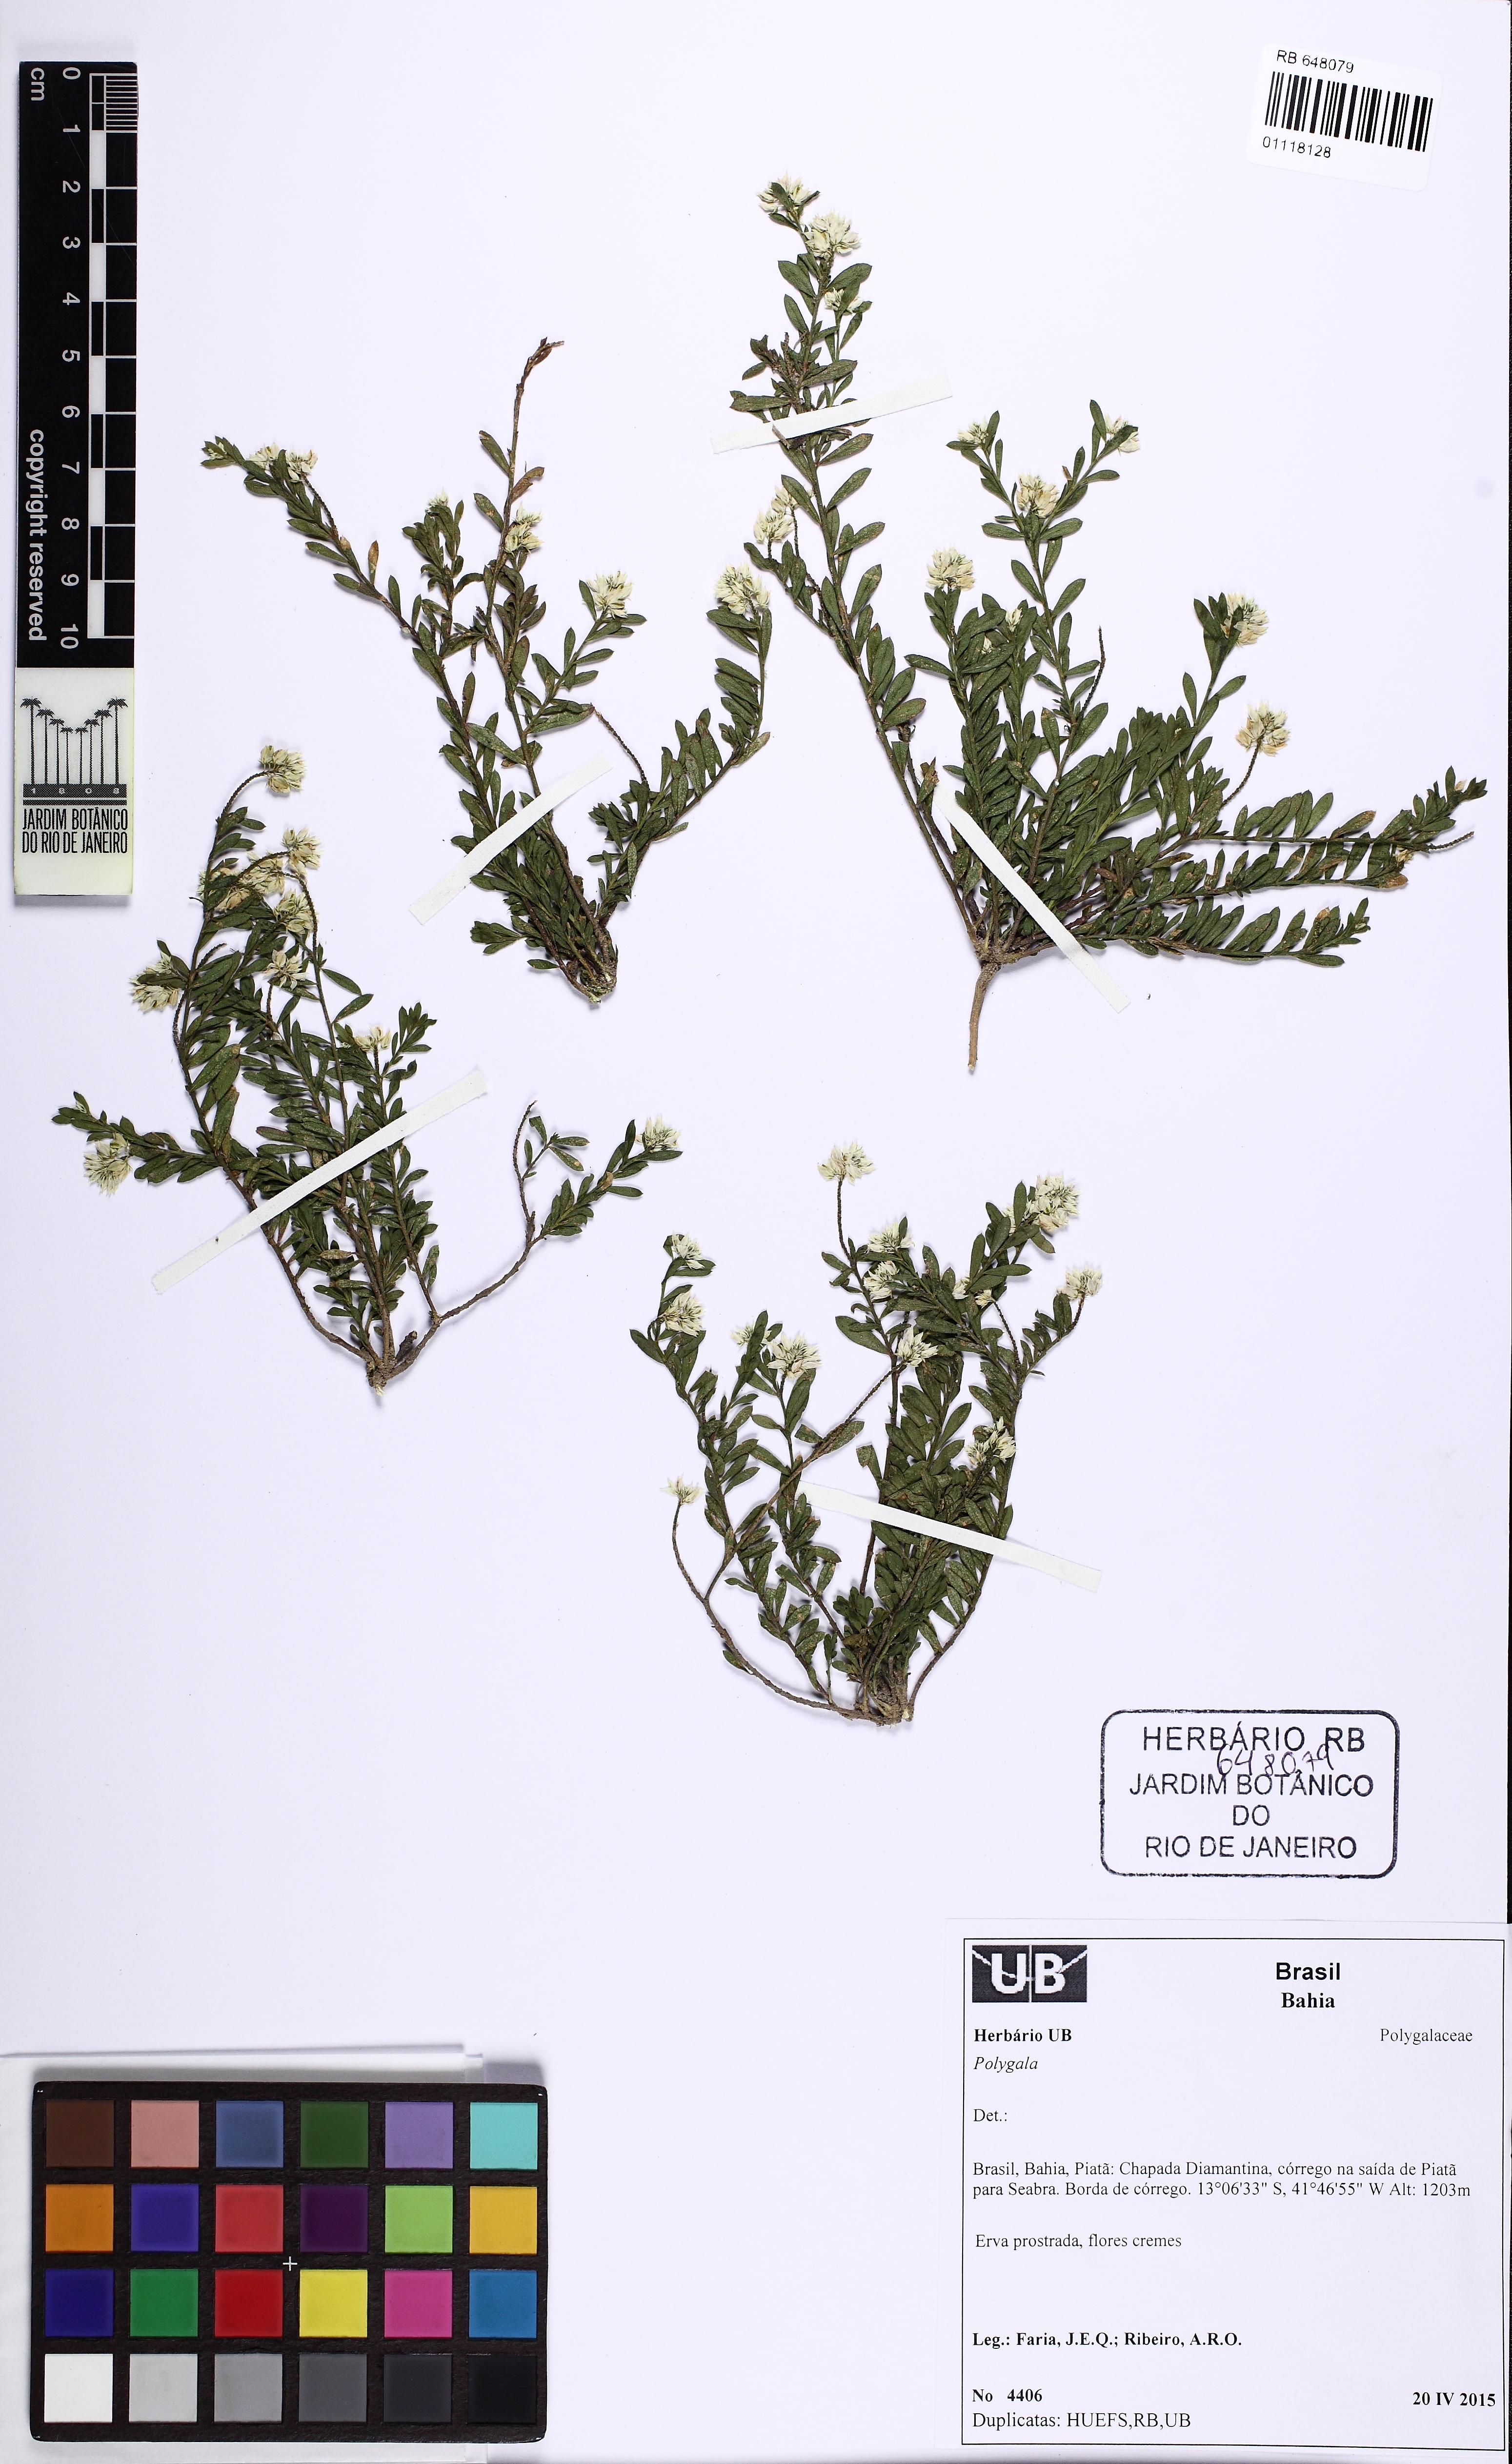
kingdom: Plantae
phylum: Tracheophyta
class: Magnoliopsida
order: Fabales
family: Polygalaceae
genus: Polygala
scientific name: Polygala multiceps
